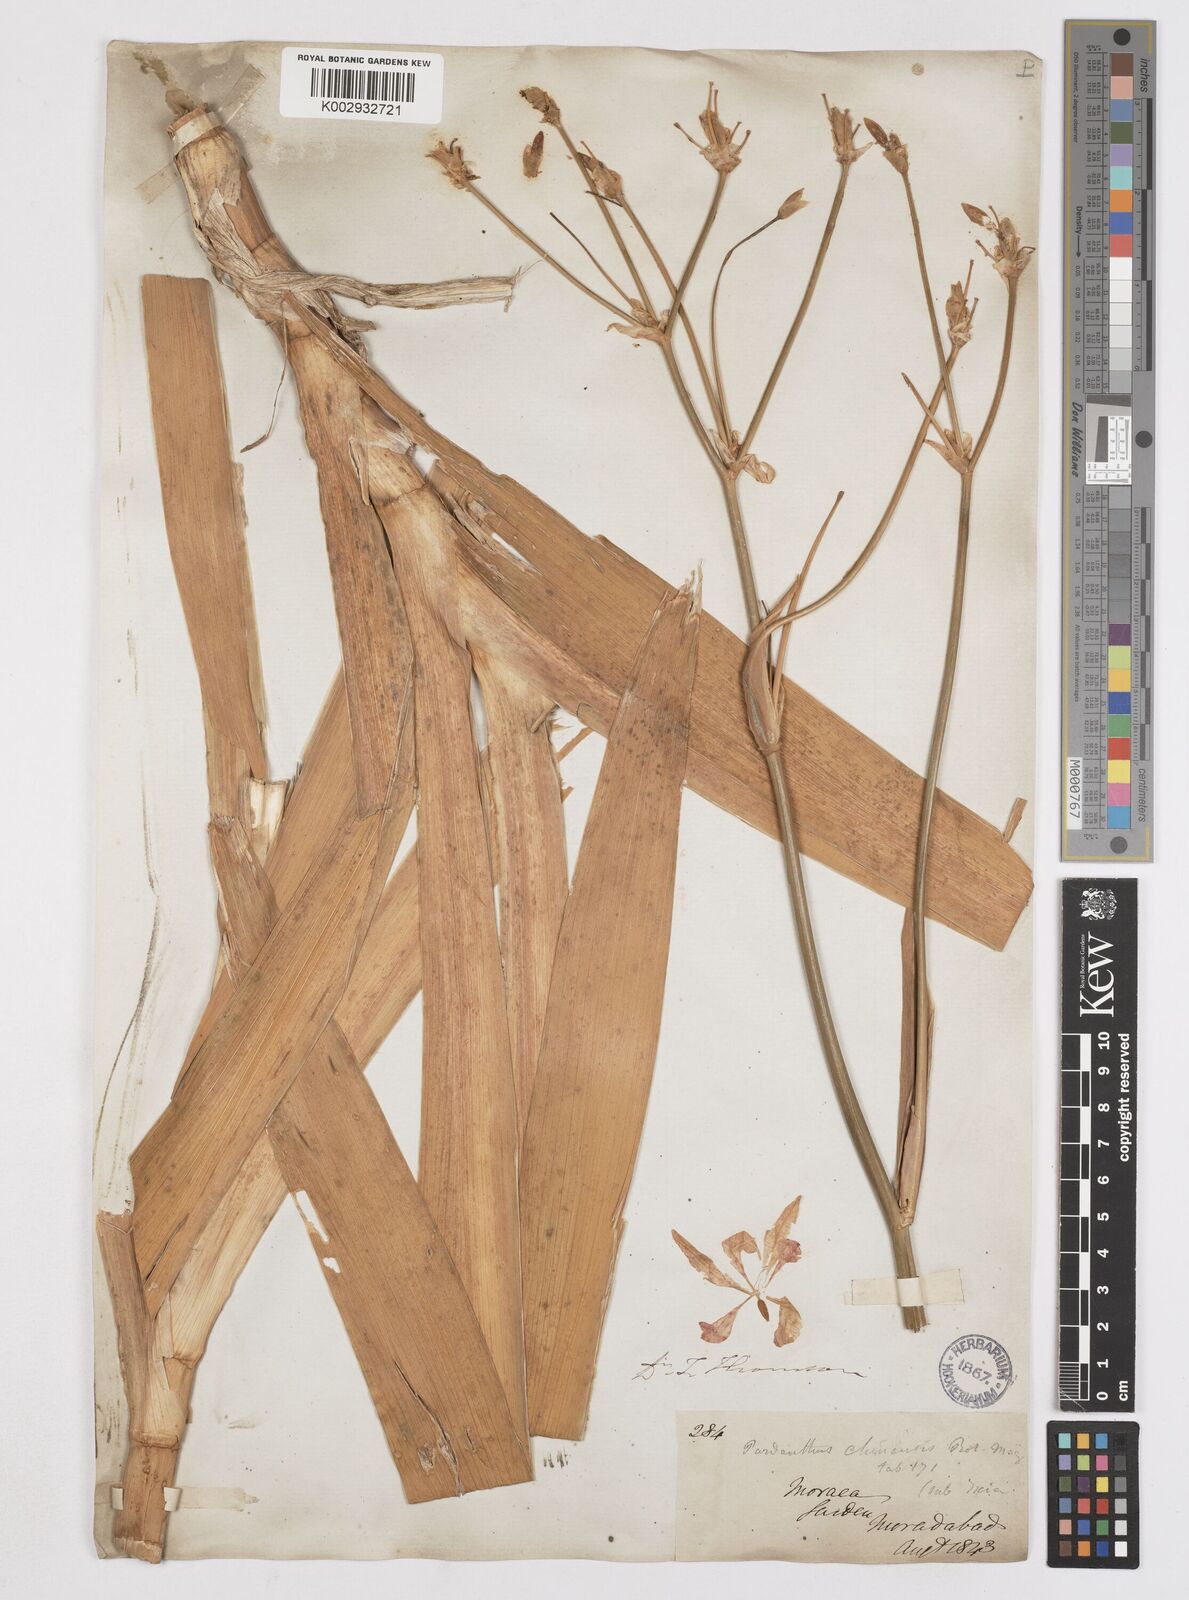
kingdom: Plantae
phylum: Tracheophyta
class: Liliopsida
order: Asparagales
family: Iridaceae
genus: Iris
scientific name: Iris
